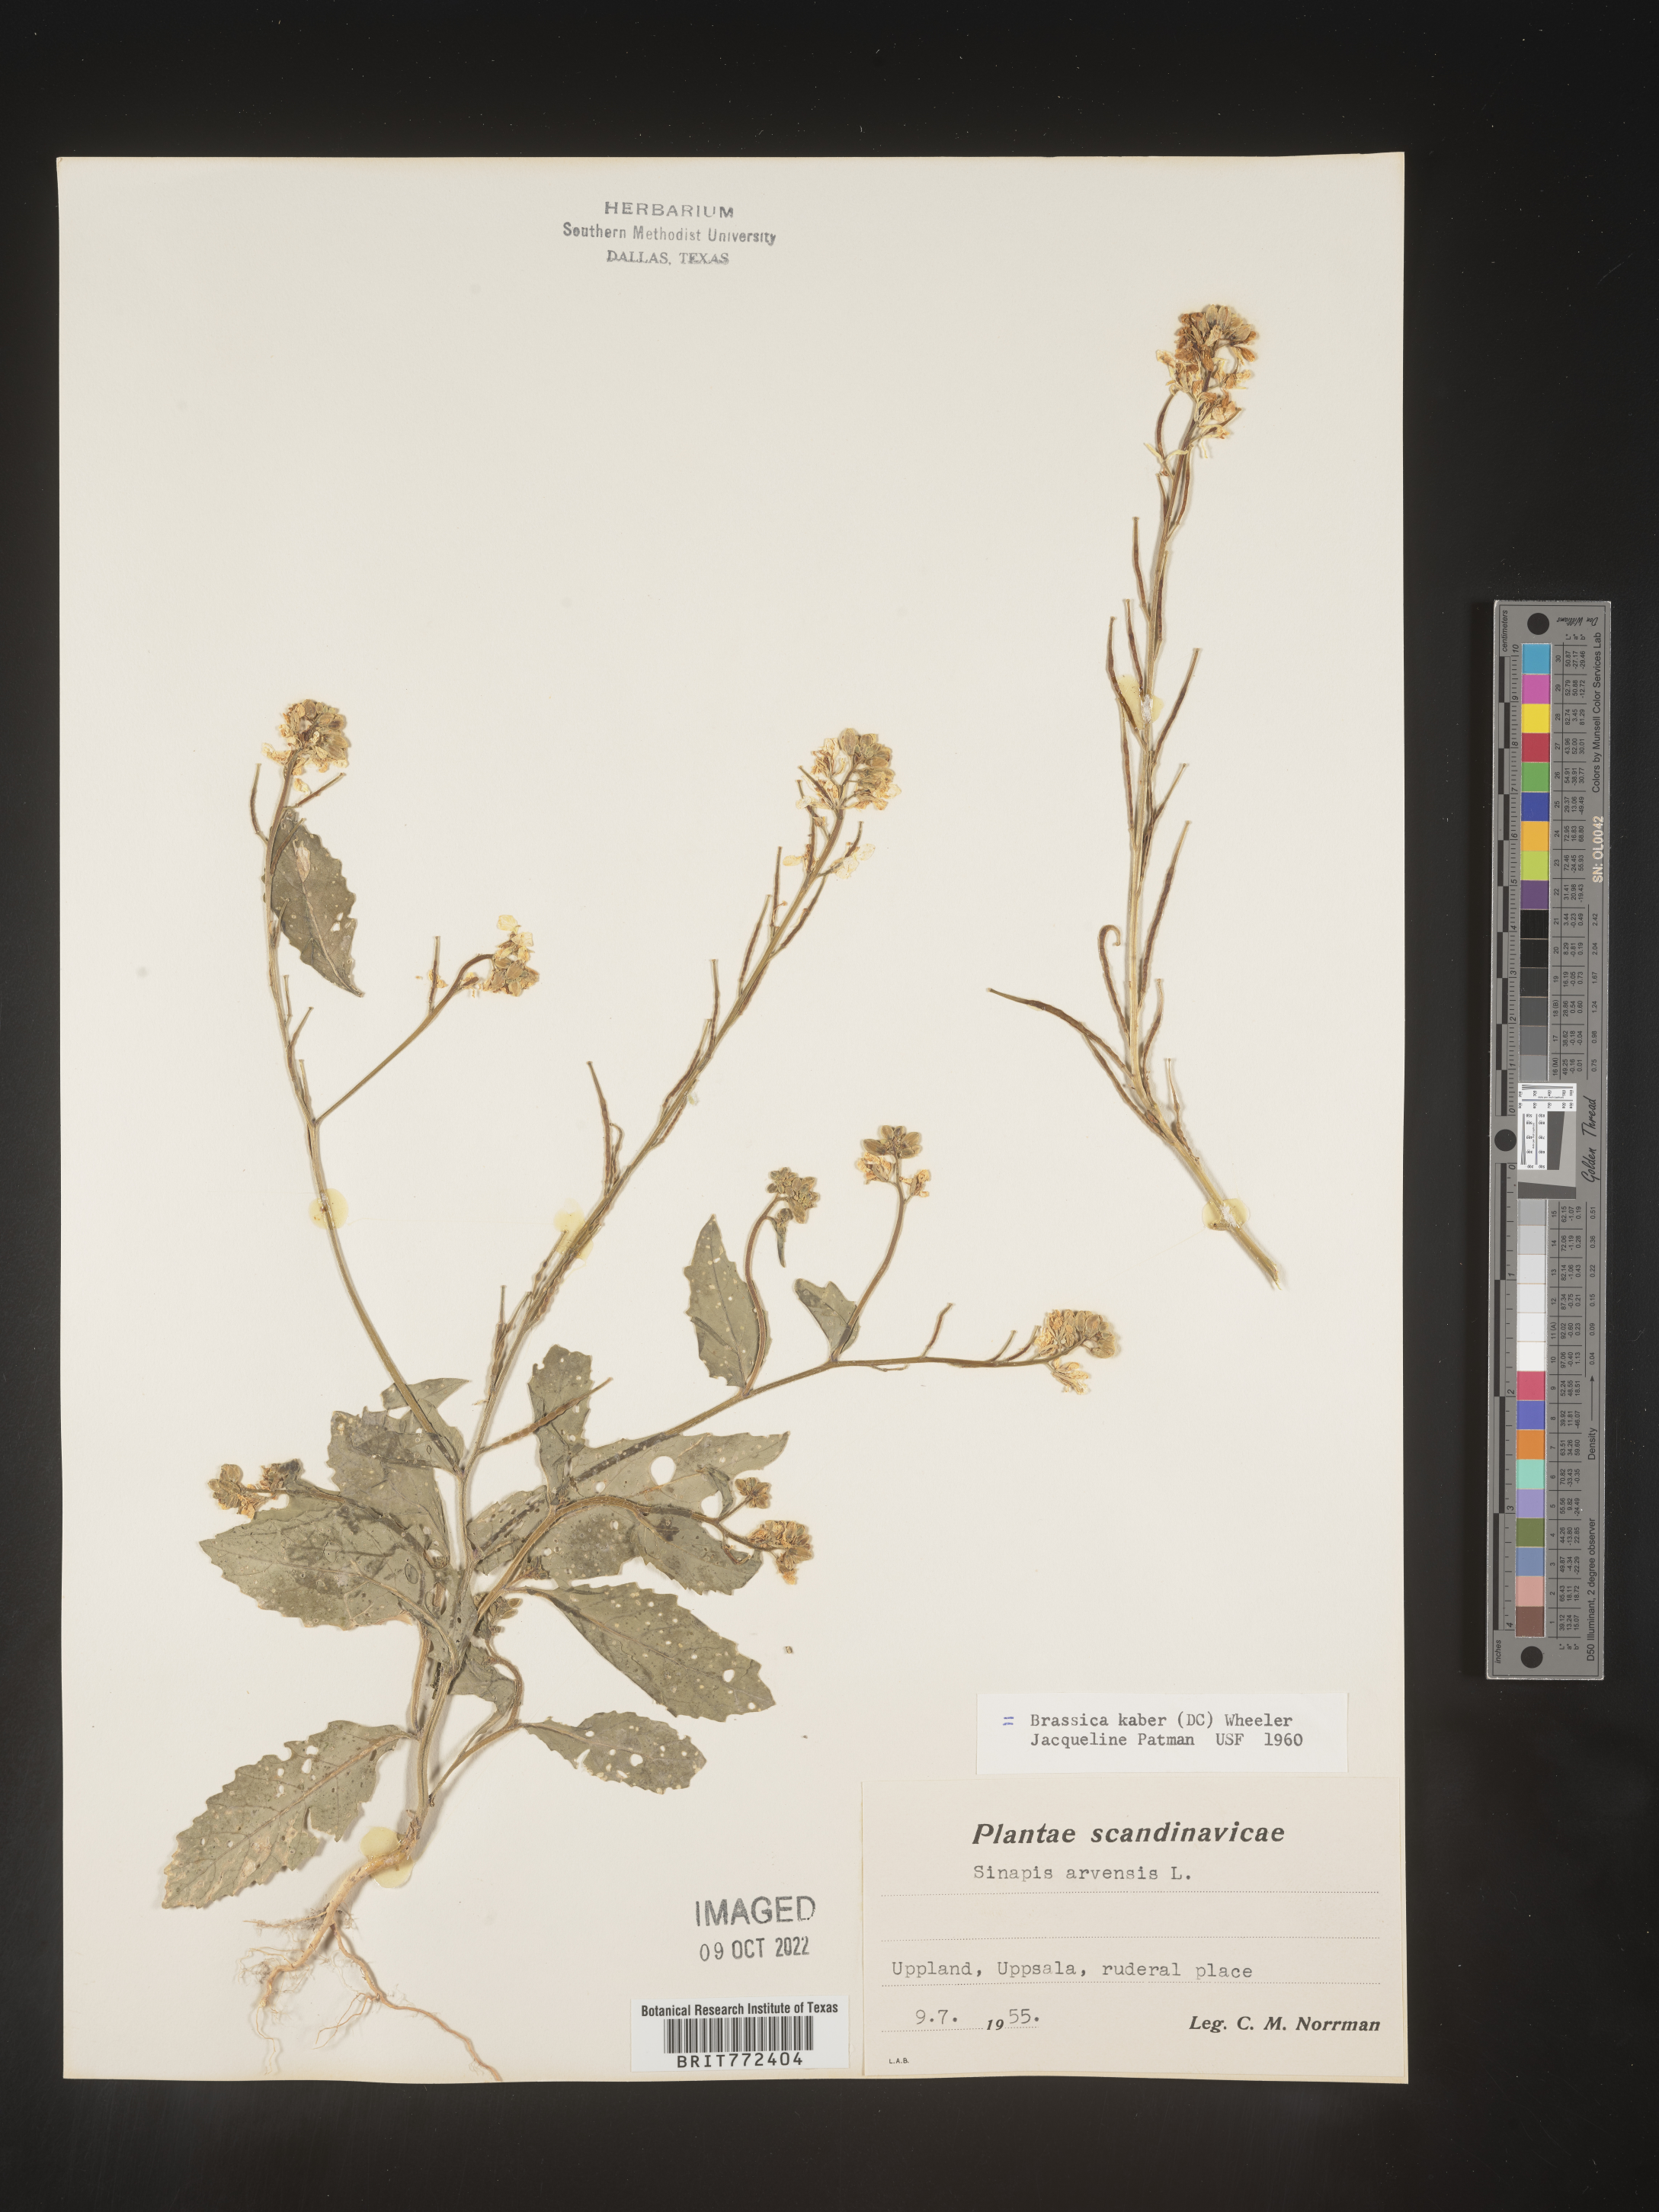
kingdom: Plantae
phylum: Tracheophyta
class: Magnoliopsida
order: Brassicales
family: Brassicaceae
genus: Brassica
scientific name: Brassica
